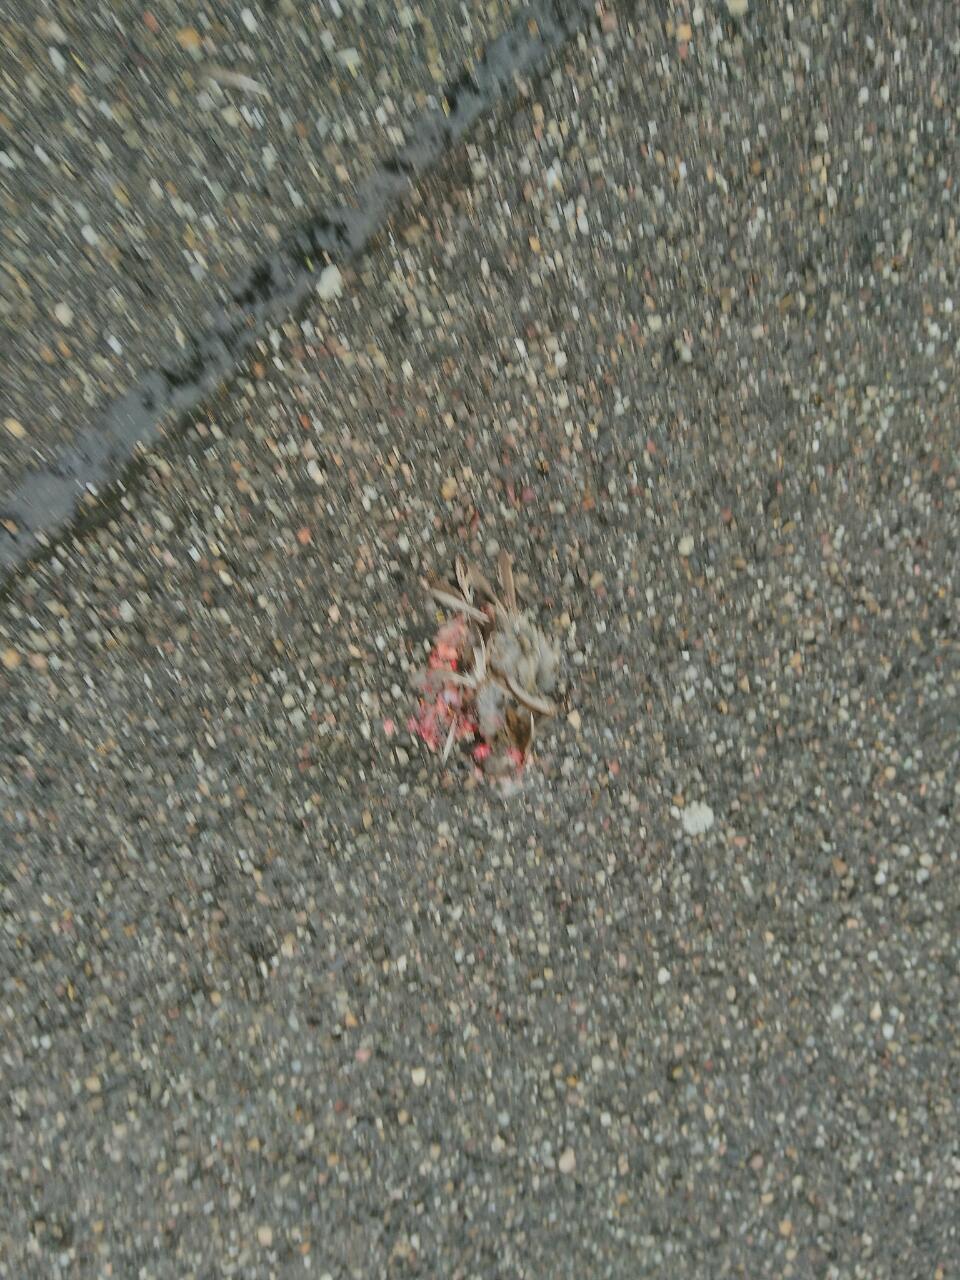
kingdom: Animalia
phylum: Chordata
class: Aves
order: Passeriformes
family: Passeridae
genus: Passer
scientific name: Passer
